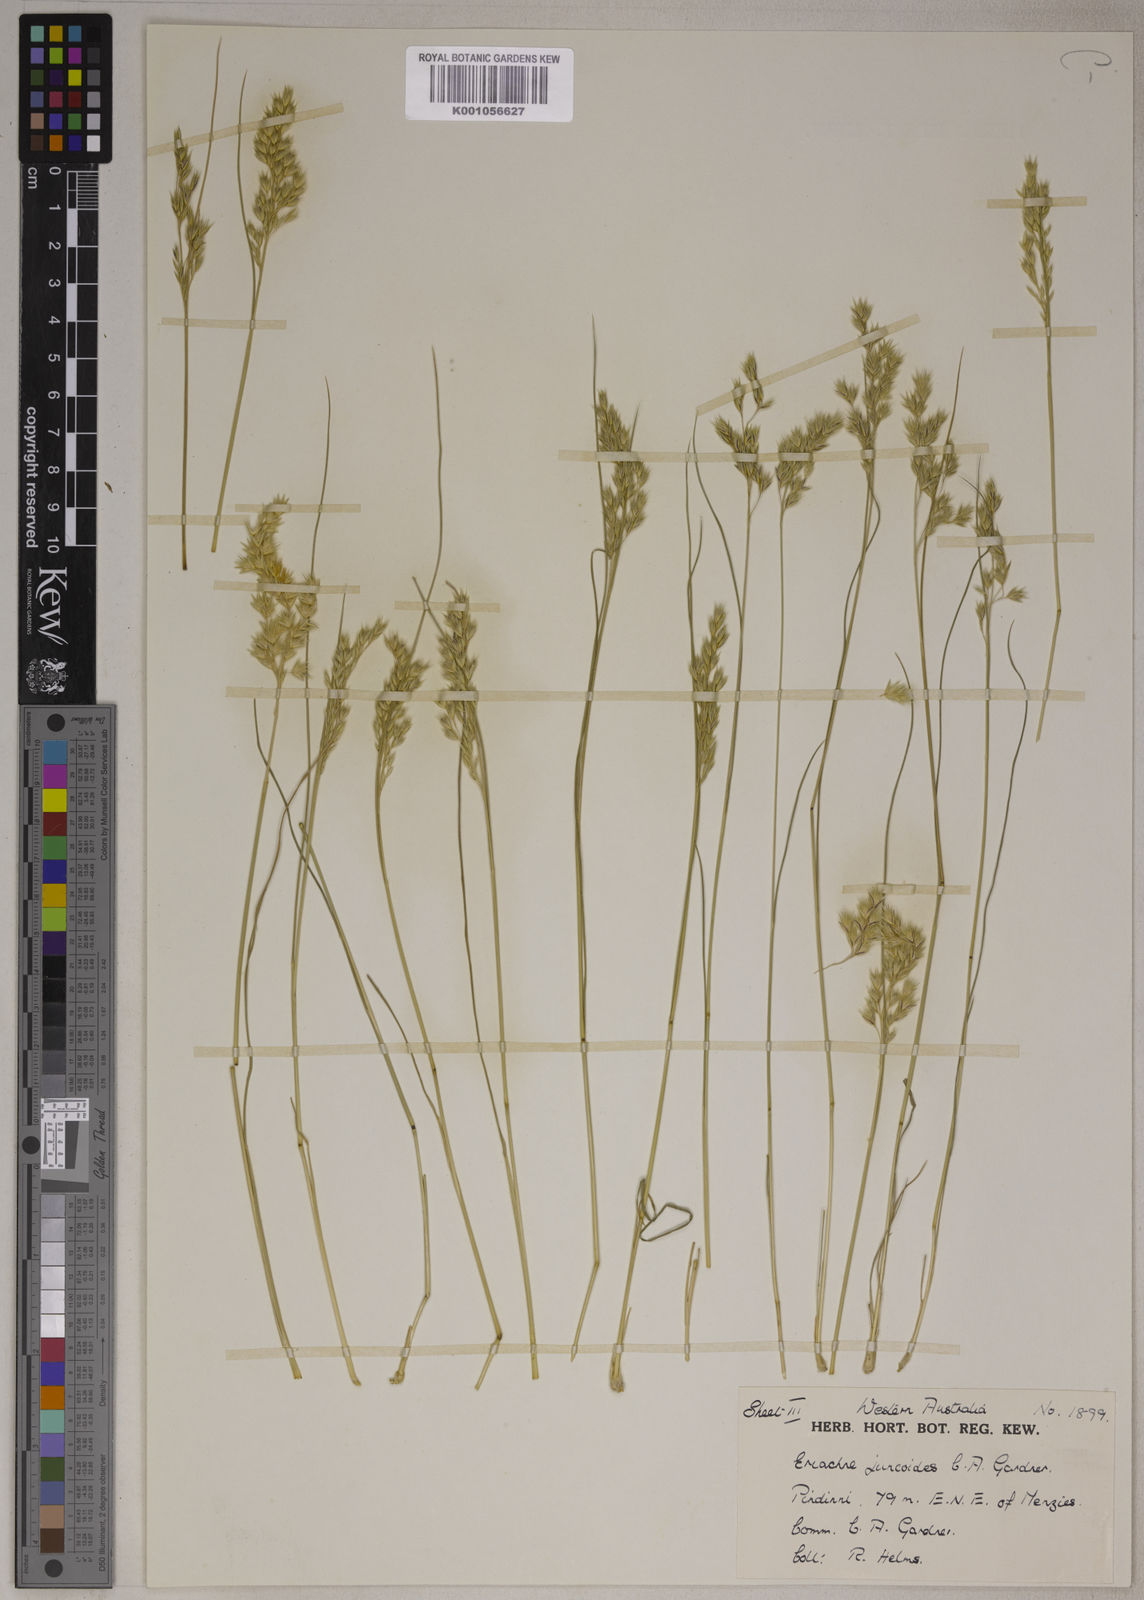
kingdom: Plantae
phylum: Tracheophyta
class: Liliopsida
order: Poales
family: Poaceae
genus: Eriachne
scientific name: Eriachne flaccida
